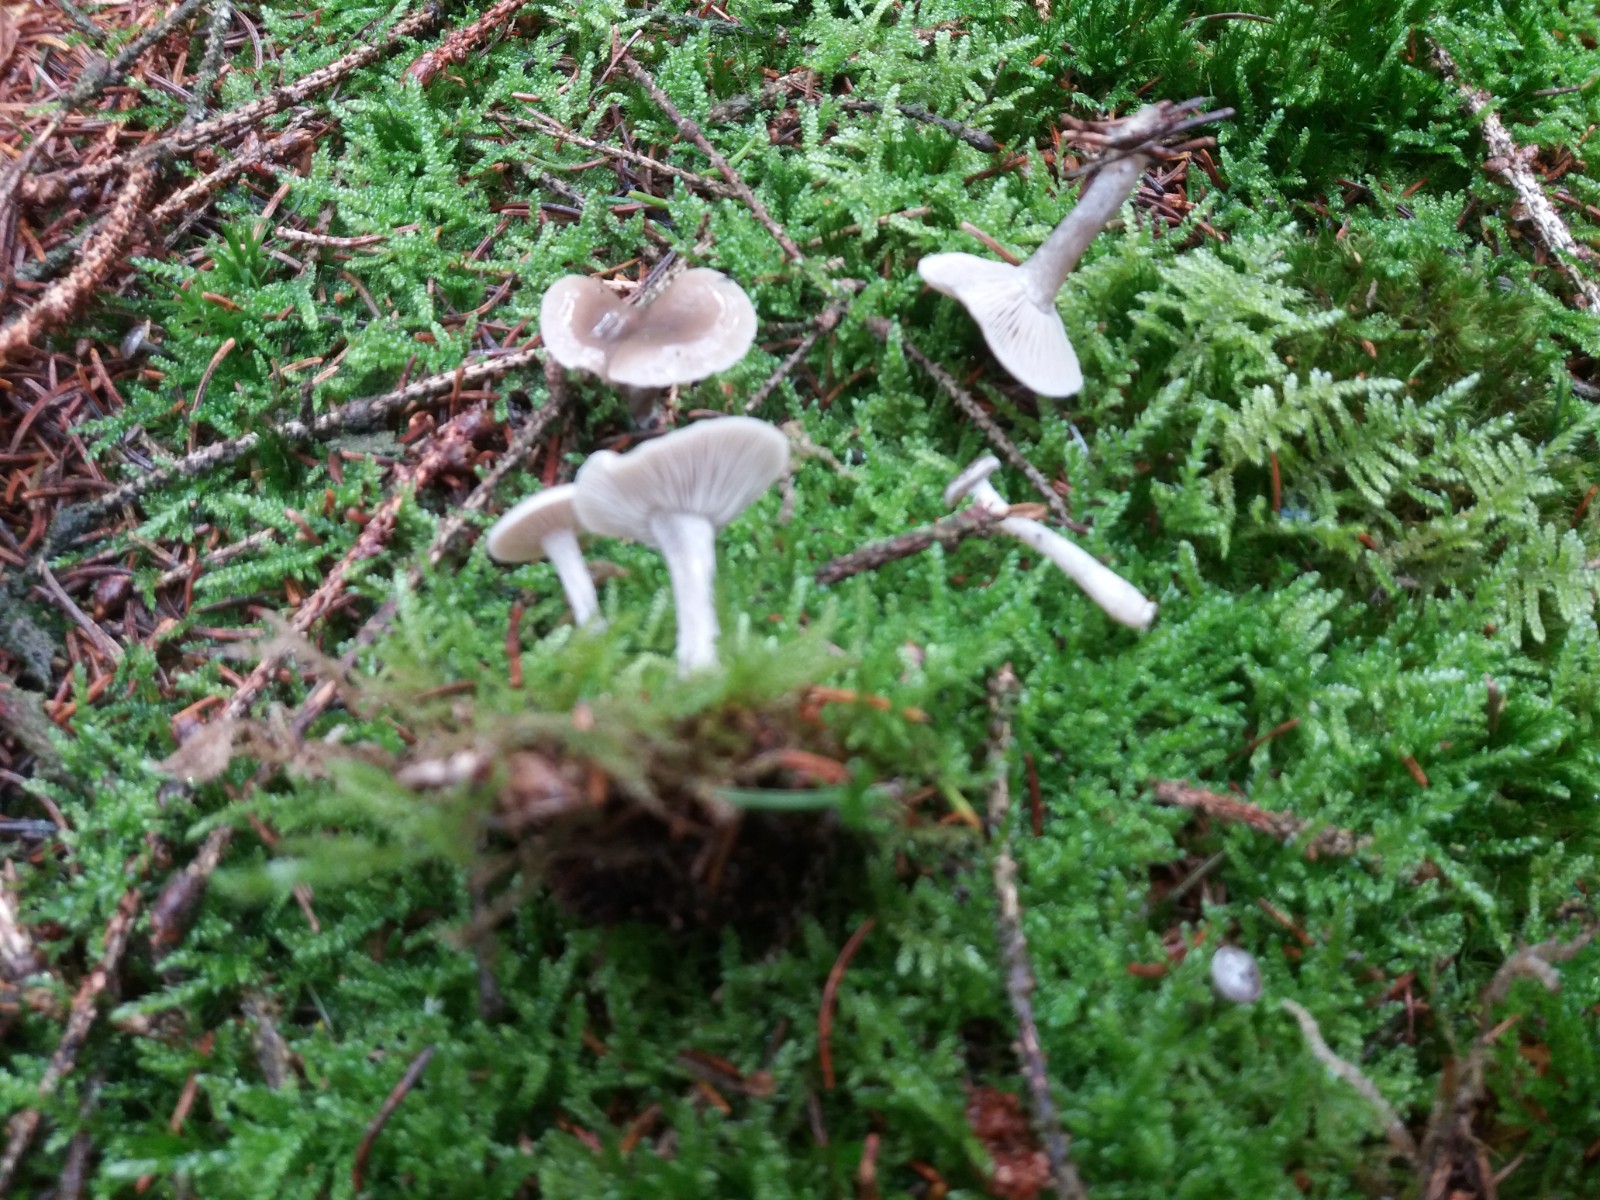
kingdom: Fungi
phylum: Basidiomycota
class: Agaricomycetes
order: Agaricales
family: Tricholomataceae
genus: Clitocybe
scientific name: Clitocybe vibecina
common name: randstribet tragthat
